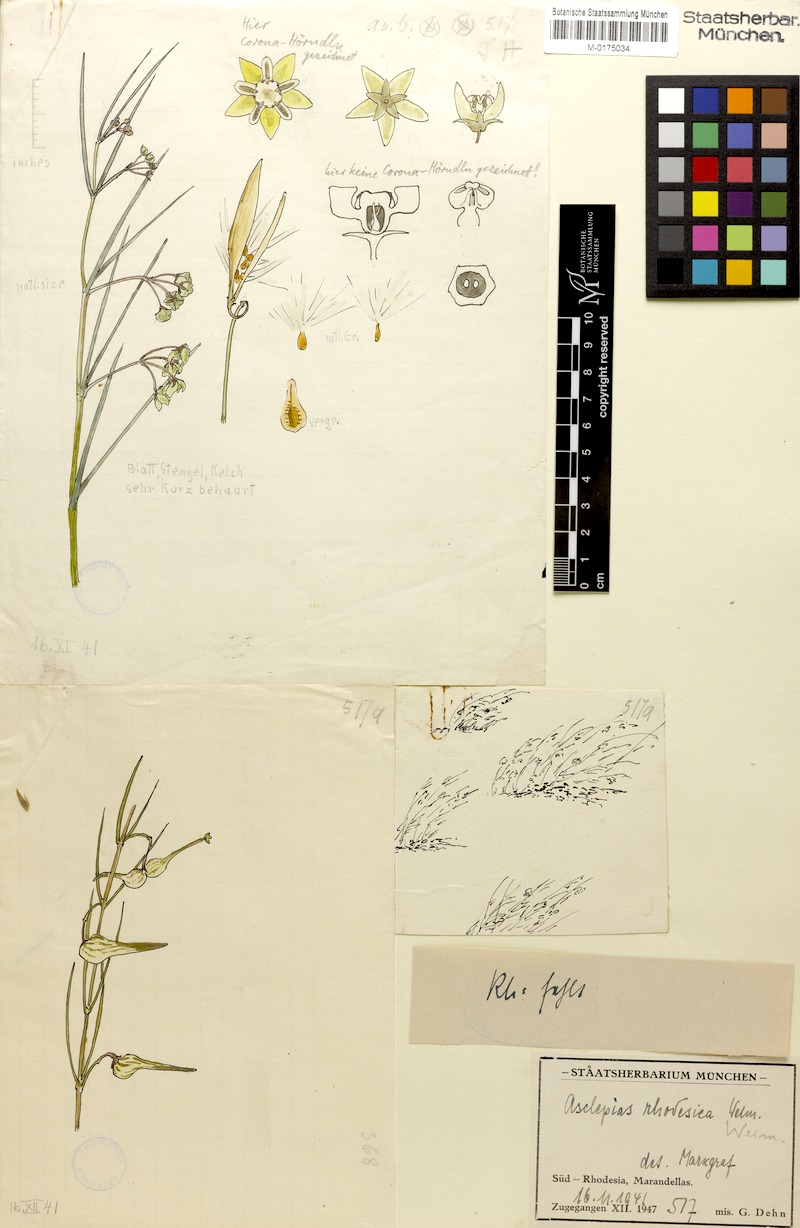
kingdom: Plantae
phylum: Tracheophyta
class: Magnoliopsida
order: Gentianales
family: Apocynaceae
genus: Gomphocarpus
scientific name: Gomphocarpus tenuifolius
